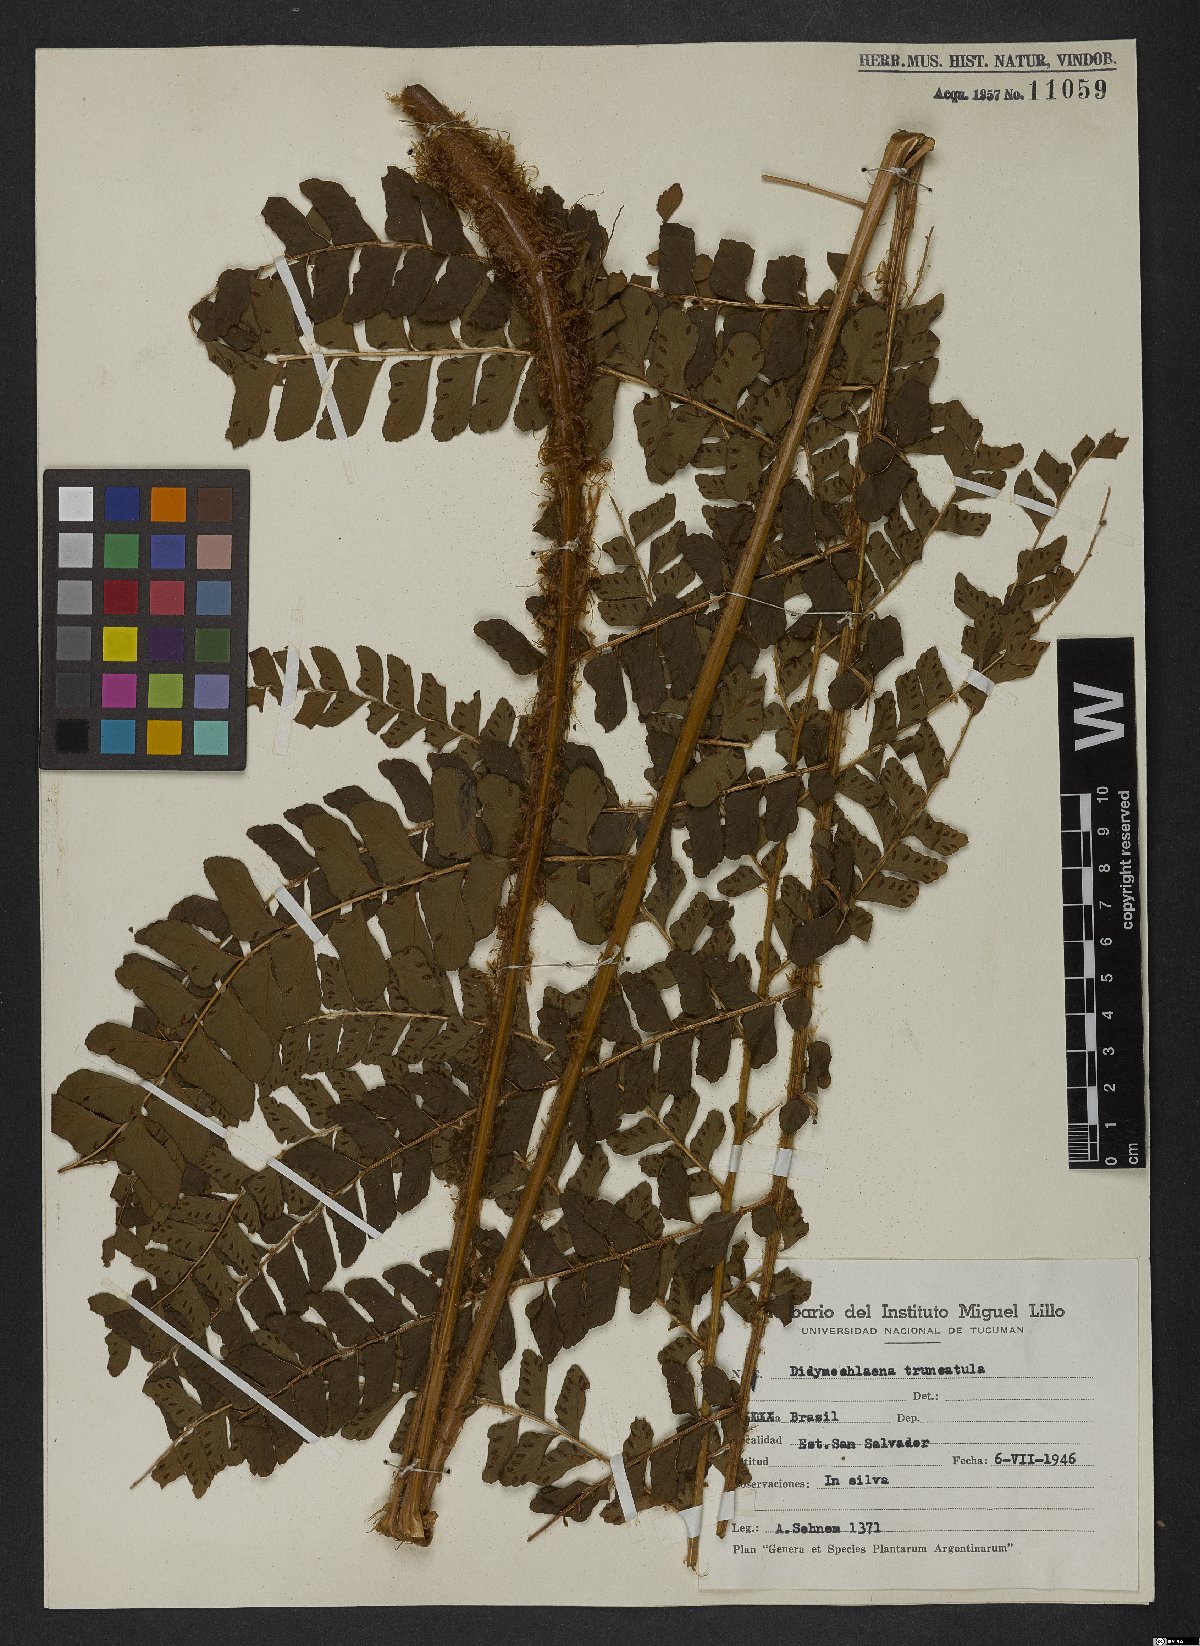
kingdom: Plantae
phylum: Tracheophyta
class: Polypodiopsida
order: Polypodiales
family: Didymochlaenaceae
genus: Didymochlaena
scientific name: Didymochlaena truncatula
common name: Mahogany fern
